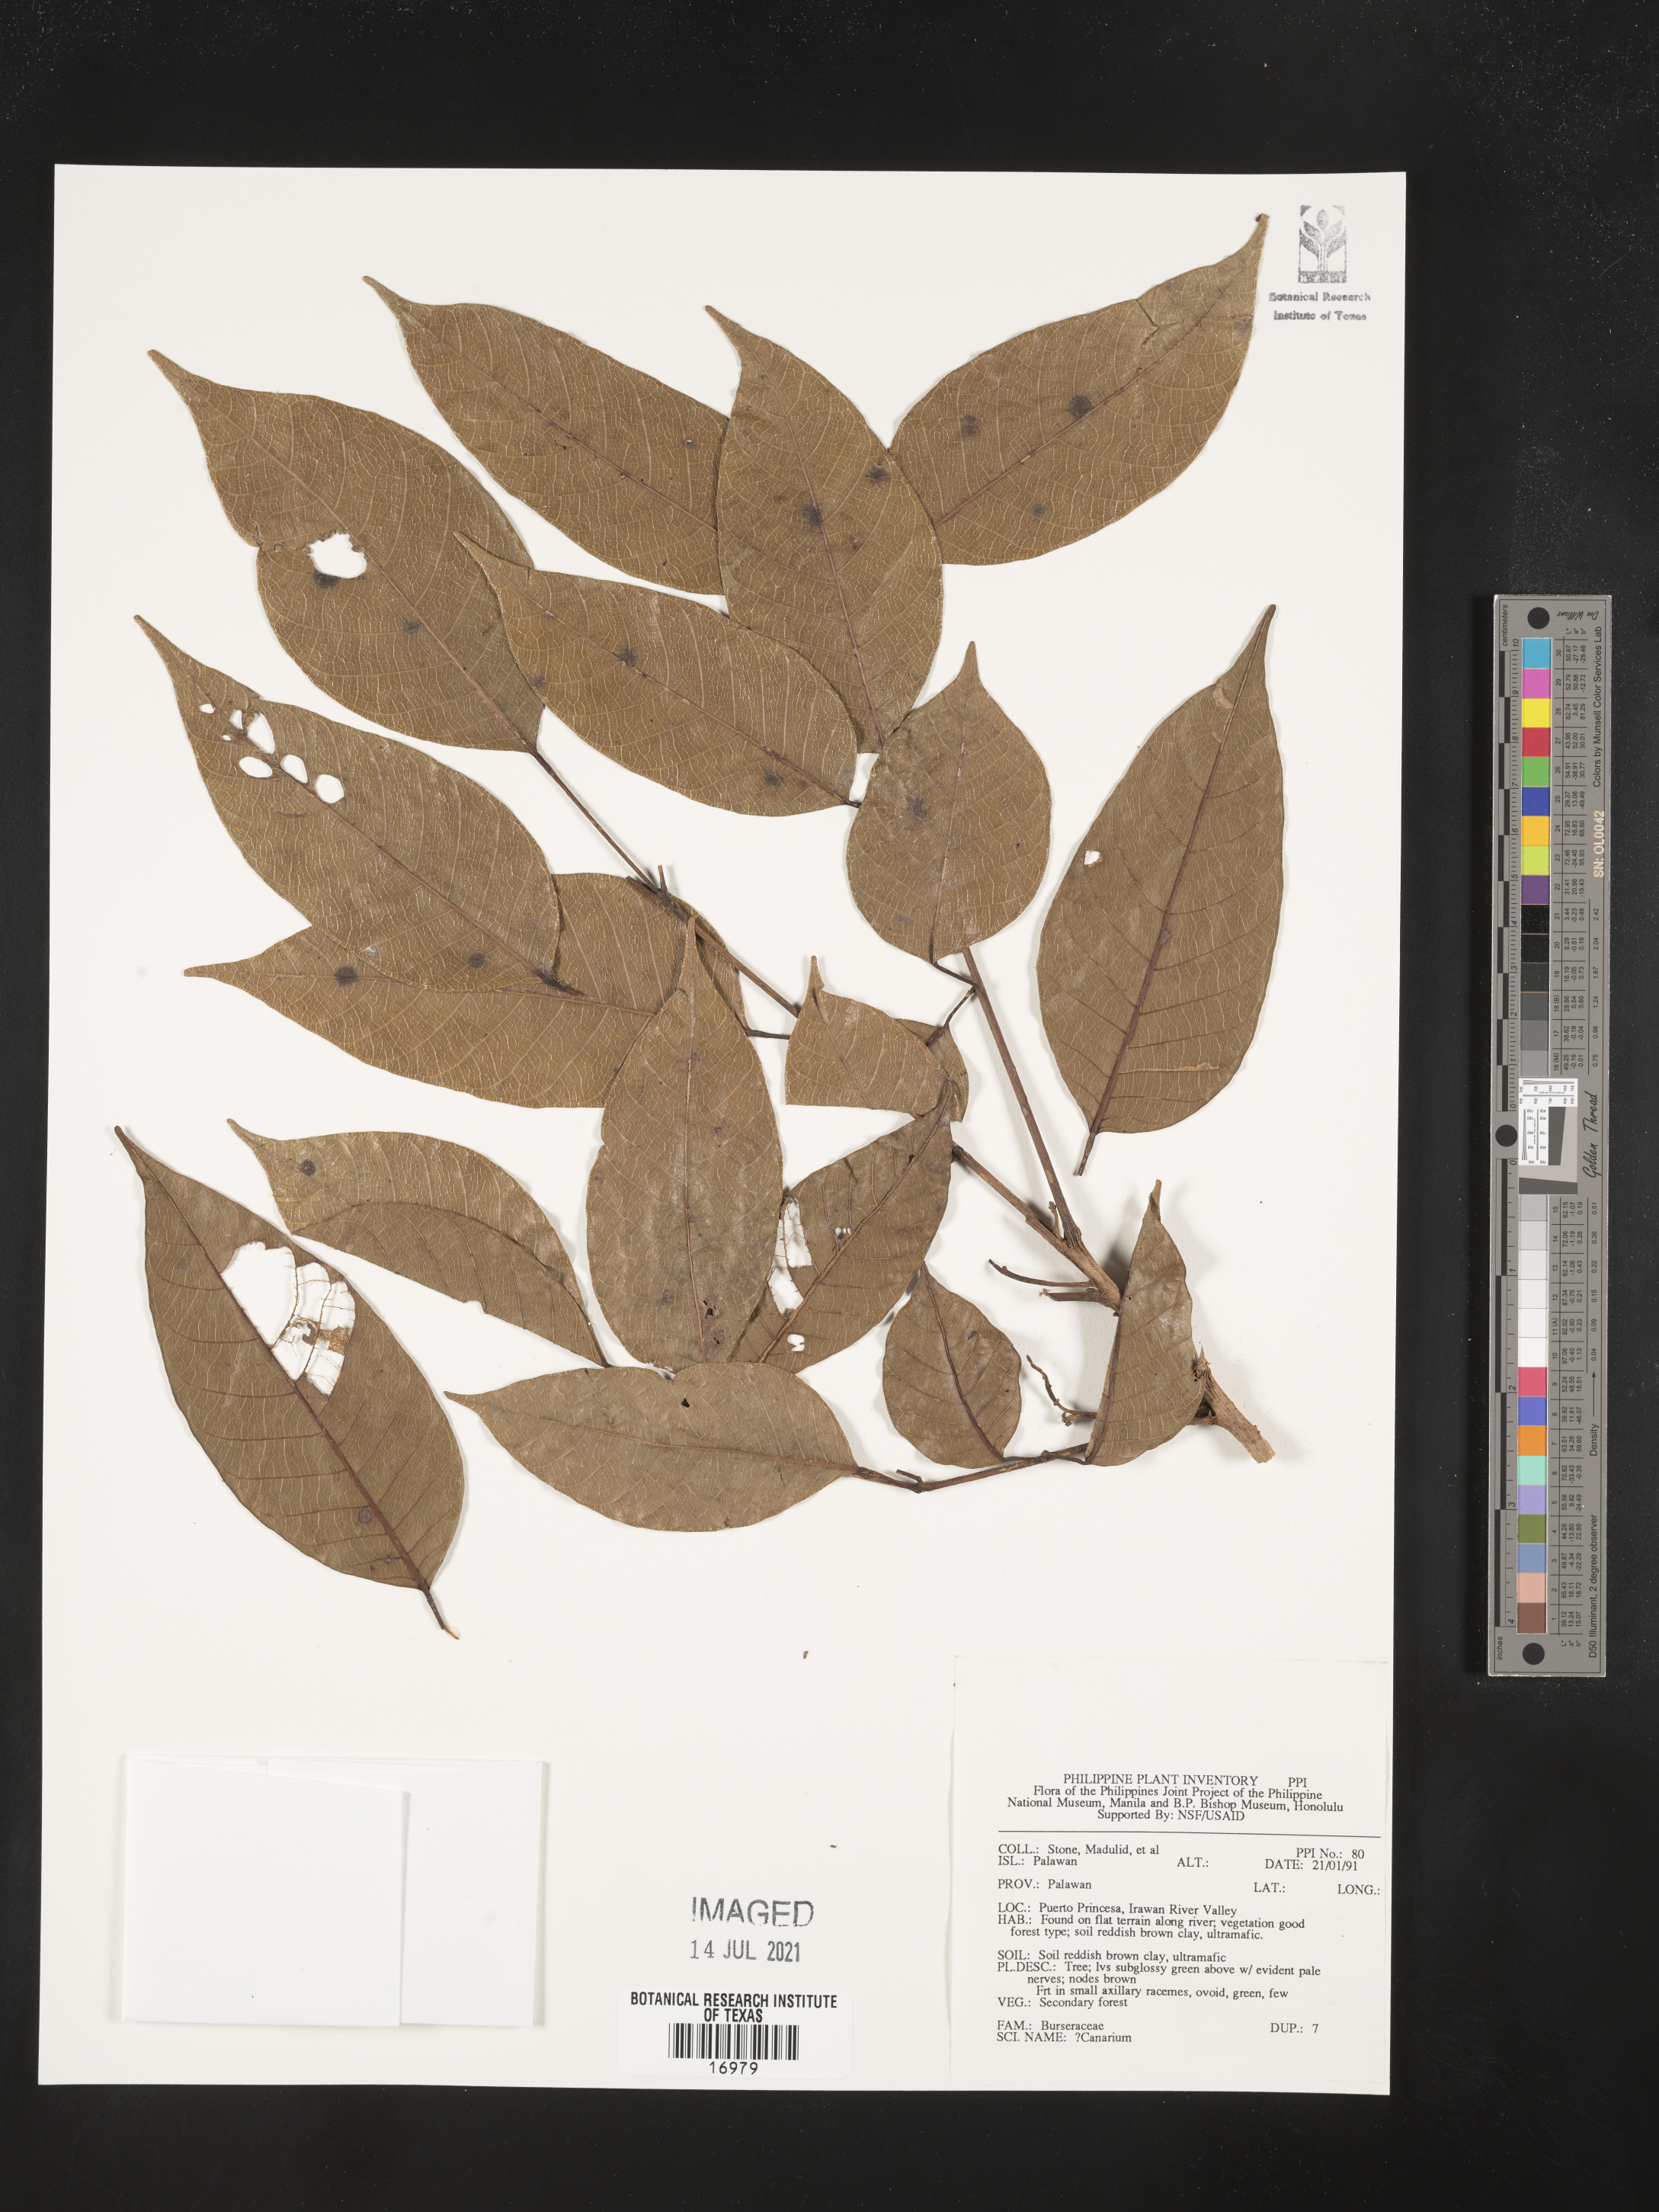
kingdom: Plantae
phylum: Tracheophyta
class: Magnoliopsida
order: Sapindales
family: Burseraceae
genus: Canarium
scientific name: Canarium
